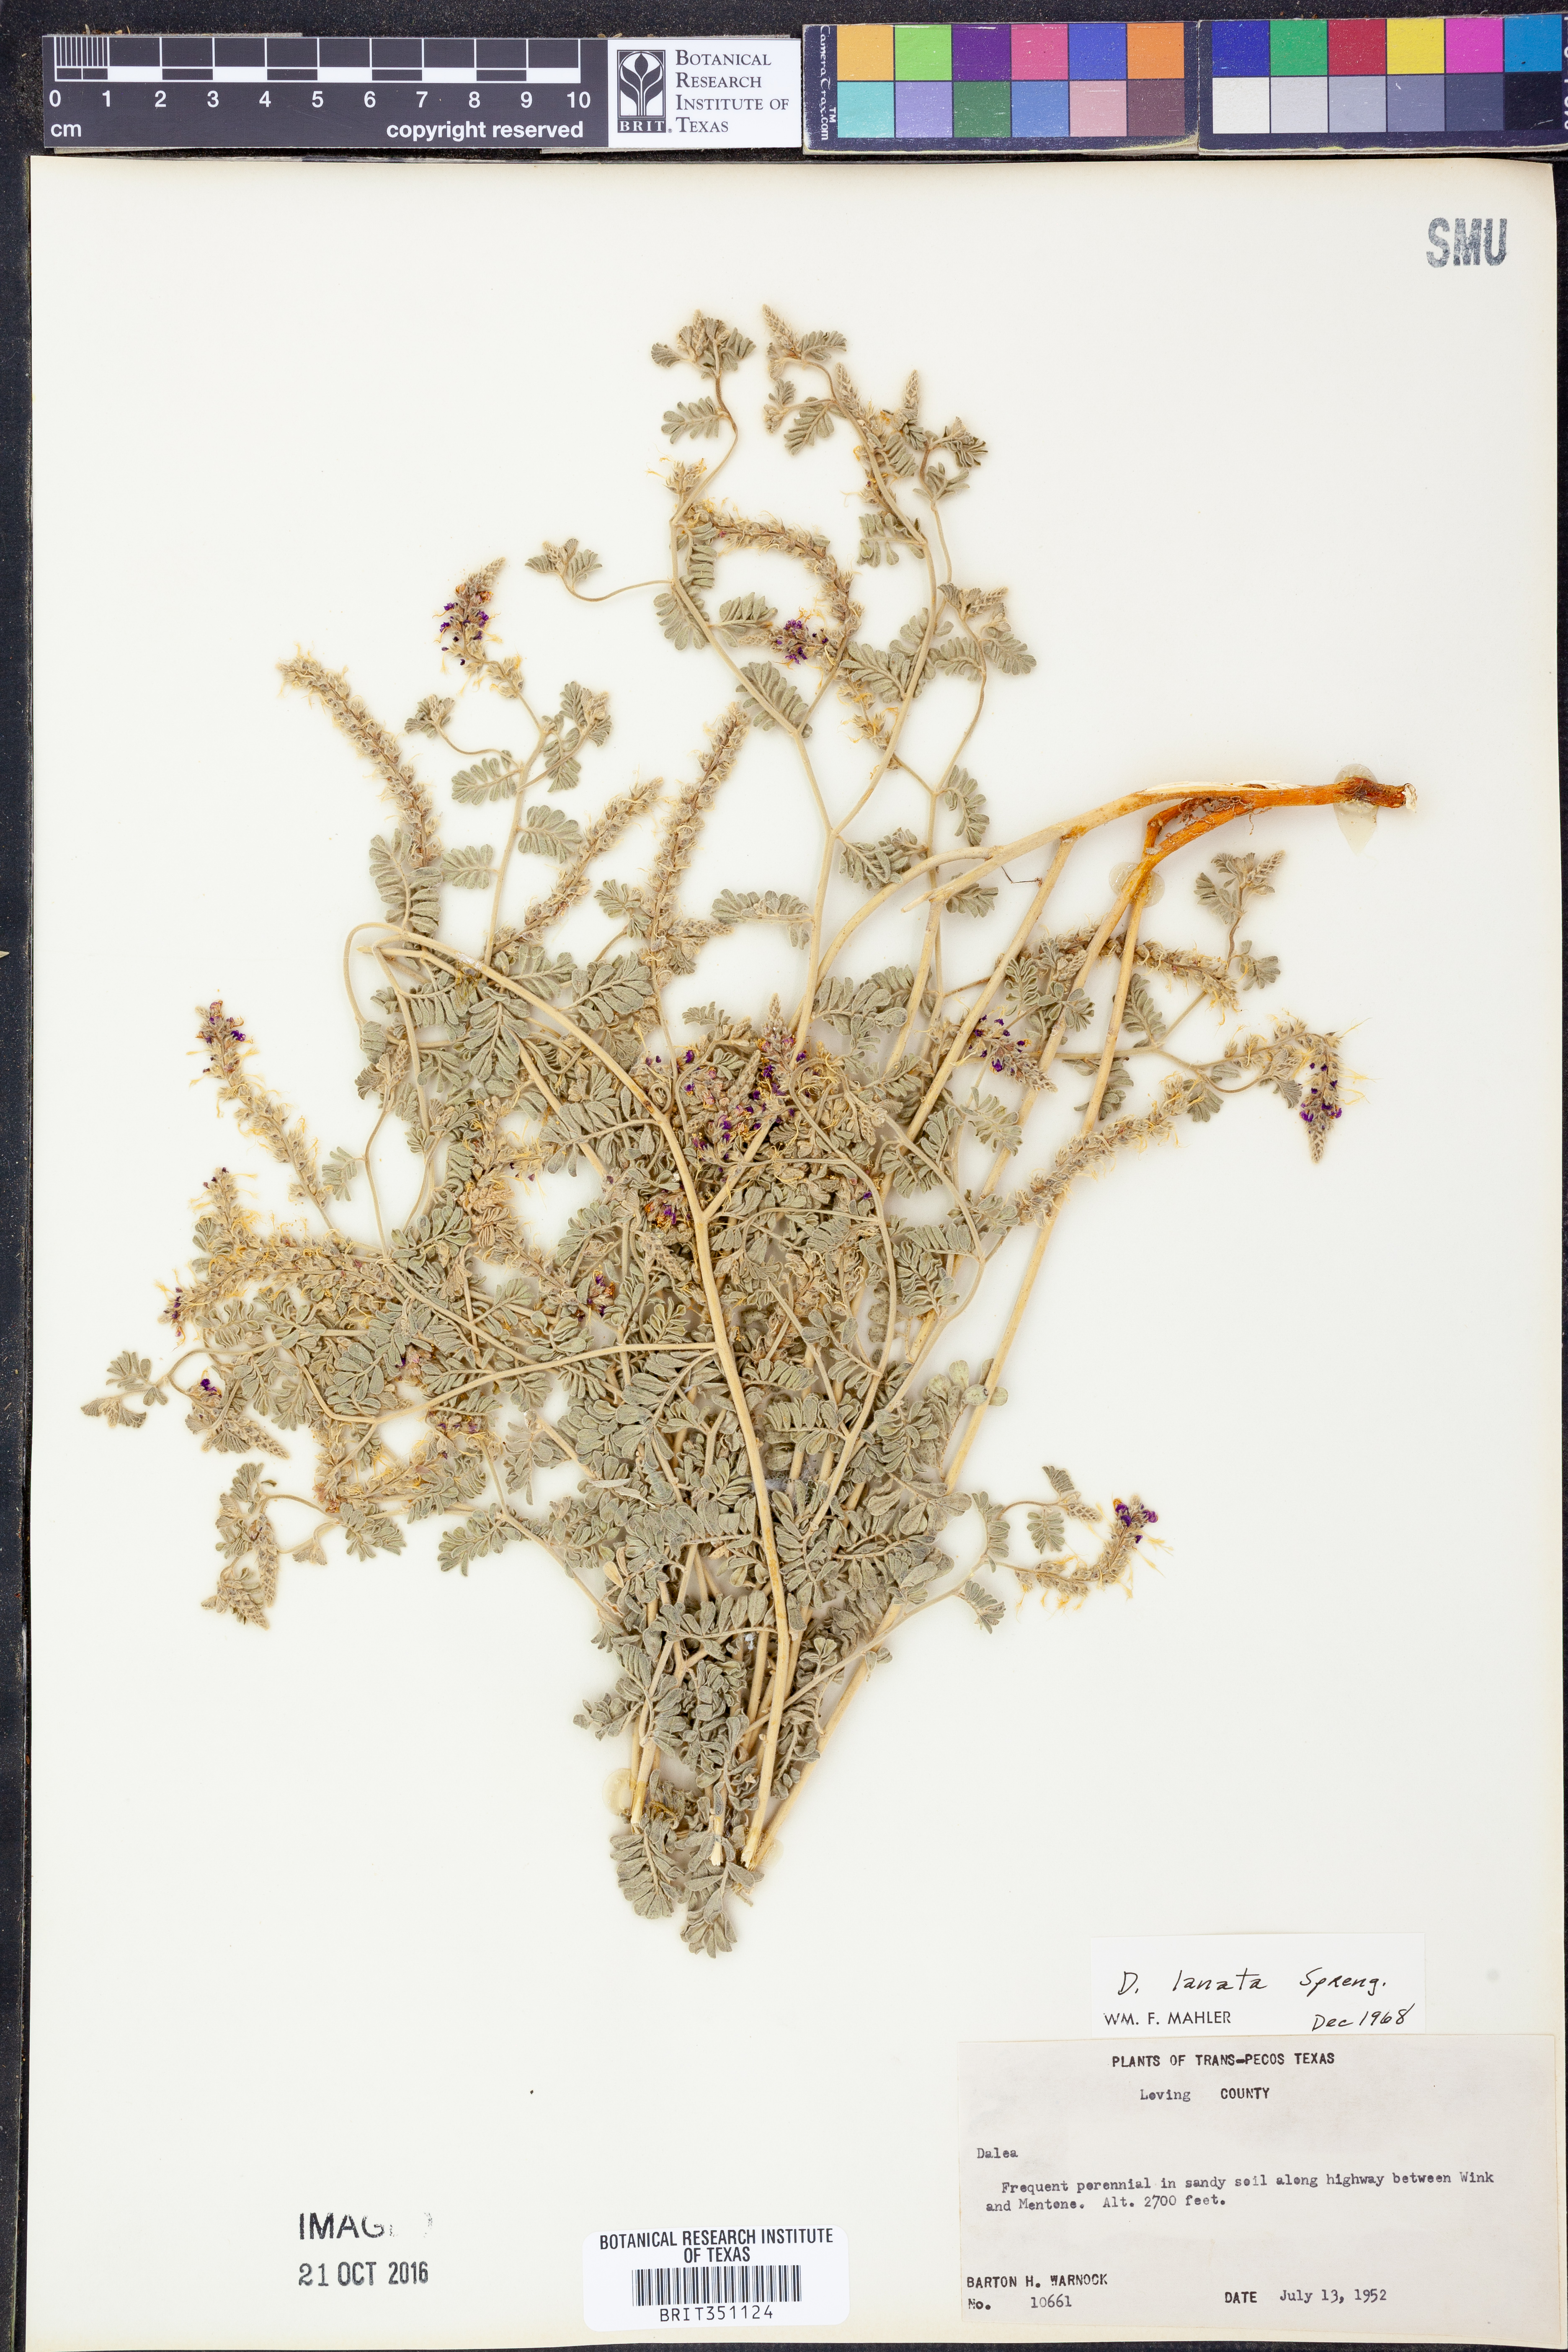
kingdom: Plantae
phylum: Tracheophyta
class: Magnoliopsida
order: Fabales
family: Fabaceae
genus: Dalea
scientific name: Dalea lanata
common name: Woolly dalea
